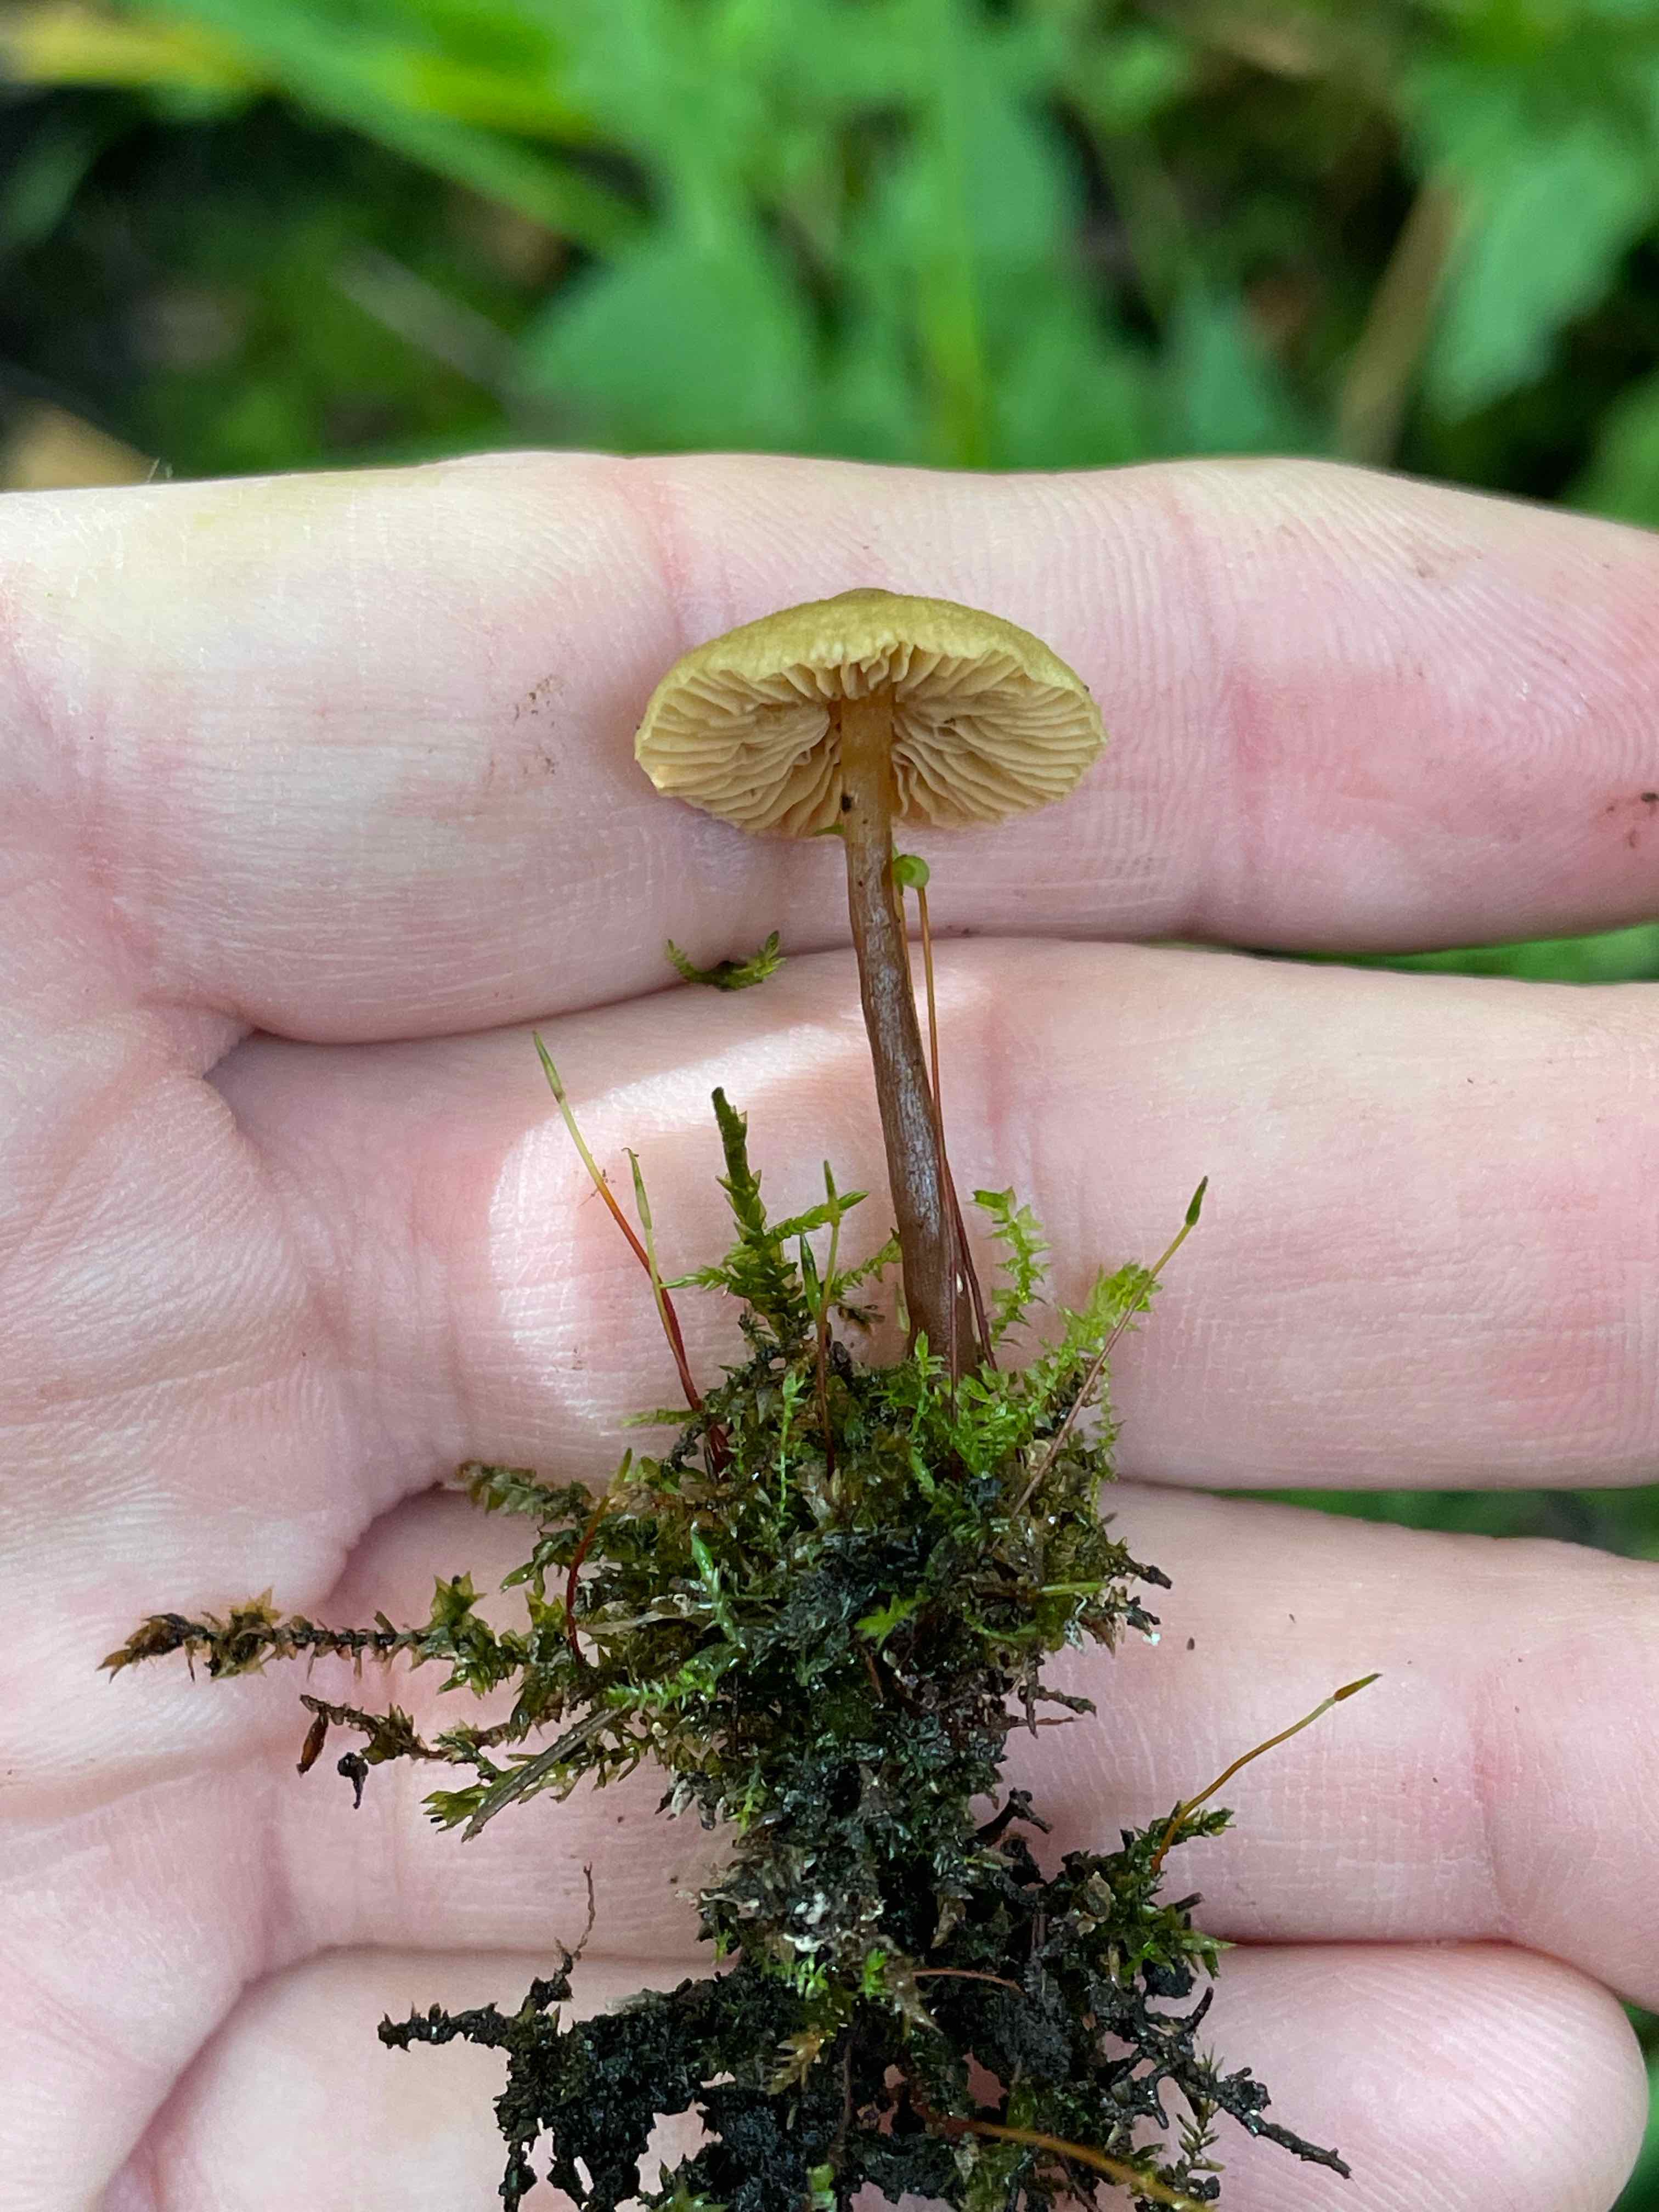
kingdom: Fungi
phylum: Basidiomycota
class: Agaricomycetes
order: Agaricales
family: Hymenogastraceae
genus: Naucoria
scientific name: Naucoria escharioides
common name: lys elle-knaphat
